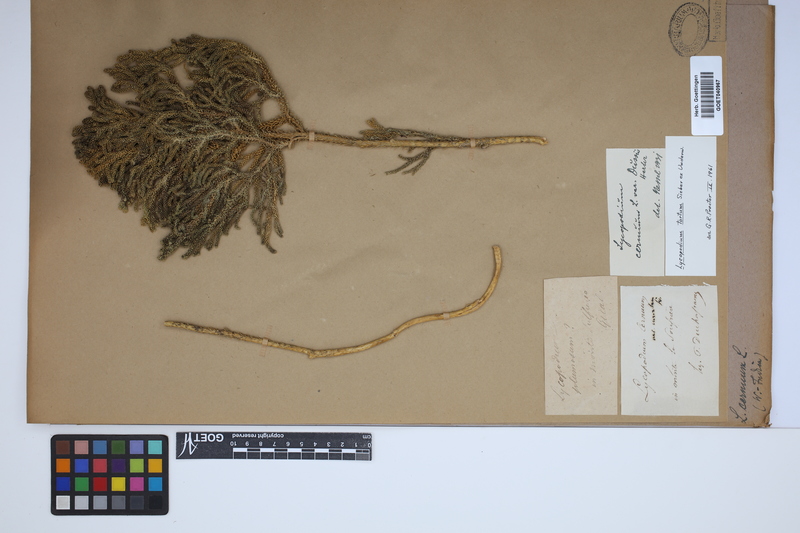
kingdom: Plantae
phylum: Tracheophyta
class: Lycopodiopsida
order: Lycopodiales
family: Lycopodiaceae
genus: Palhinhaea
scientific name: Palhinhaea cernua
